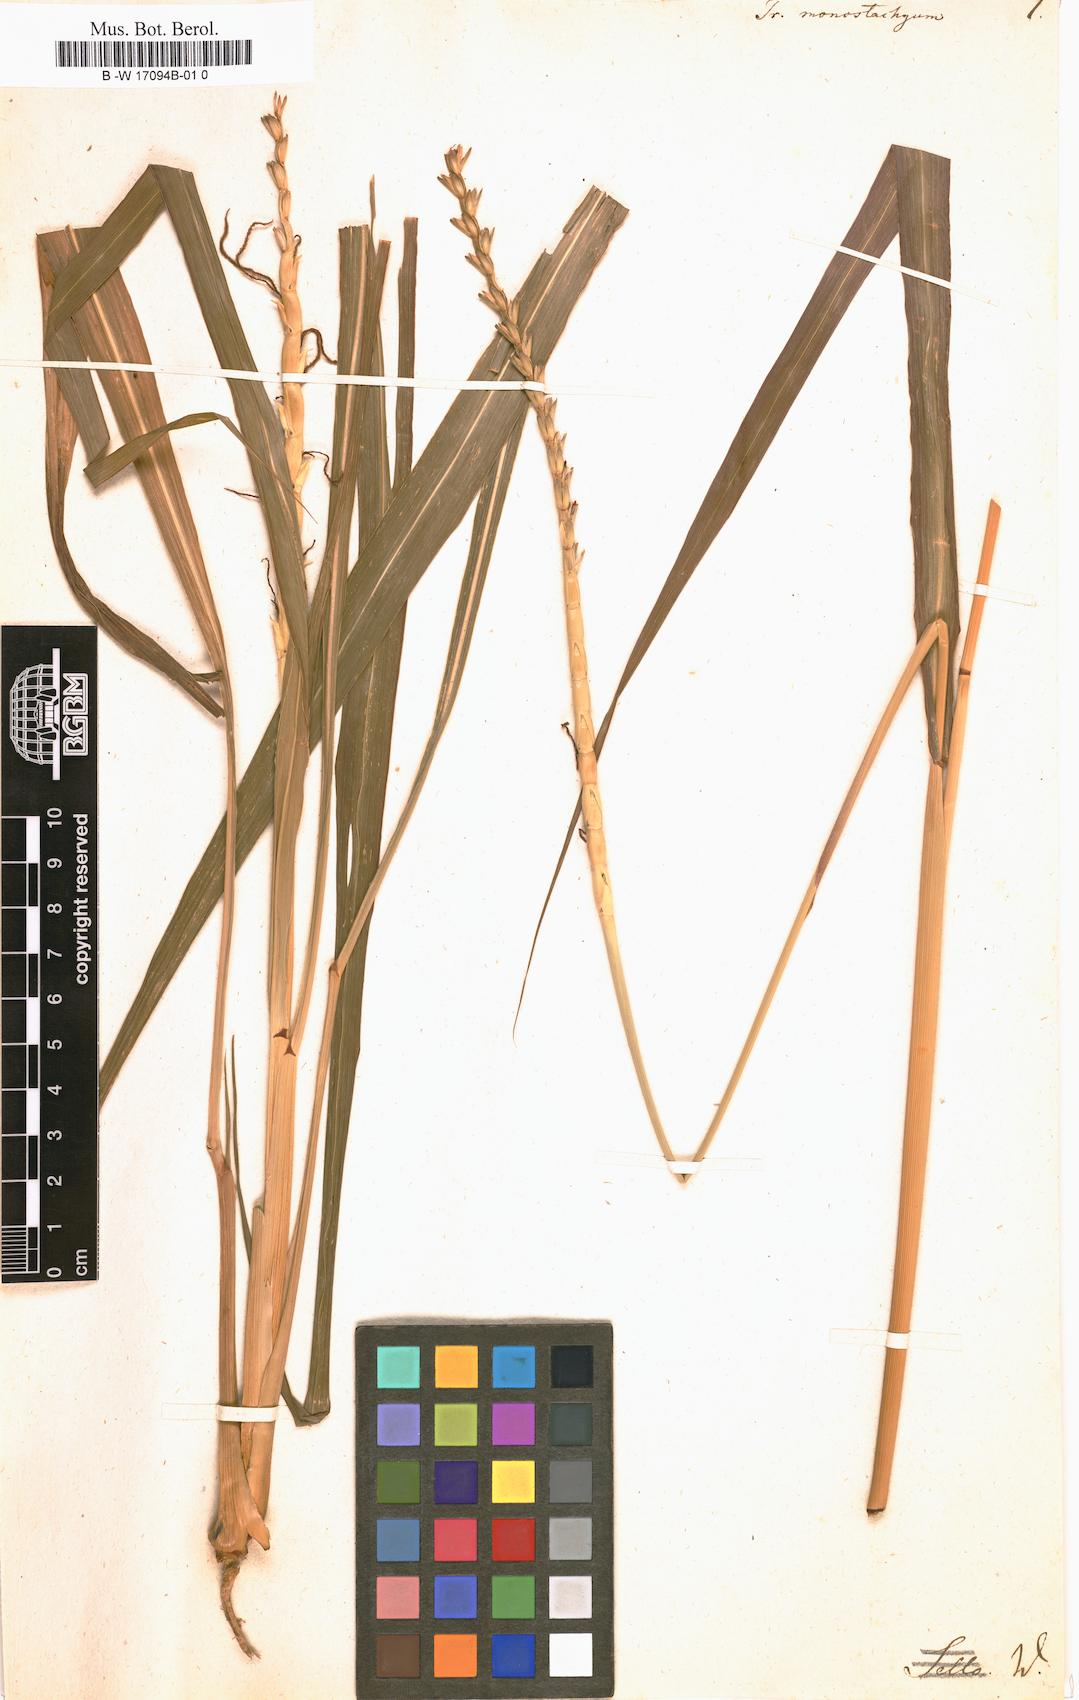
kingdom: Plantae
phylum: Tracheophyta
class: Liliopsida
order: Poales
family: Poaceae
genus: Tripsacum
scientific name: Tripsacum dactyloides
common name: Buffalo-grass
